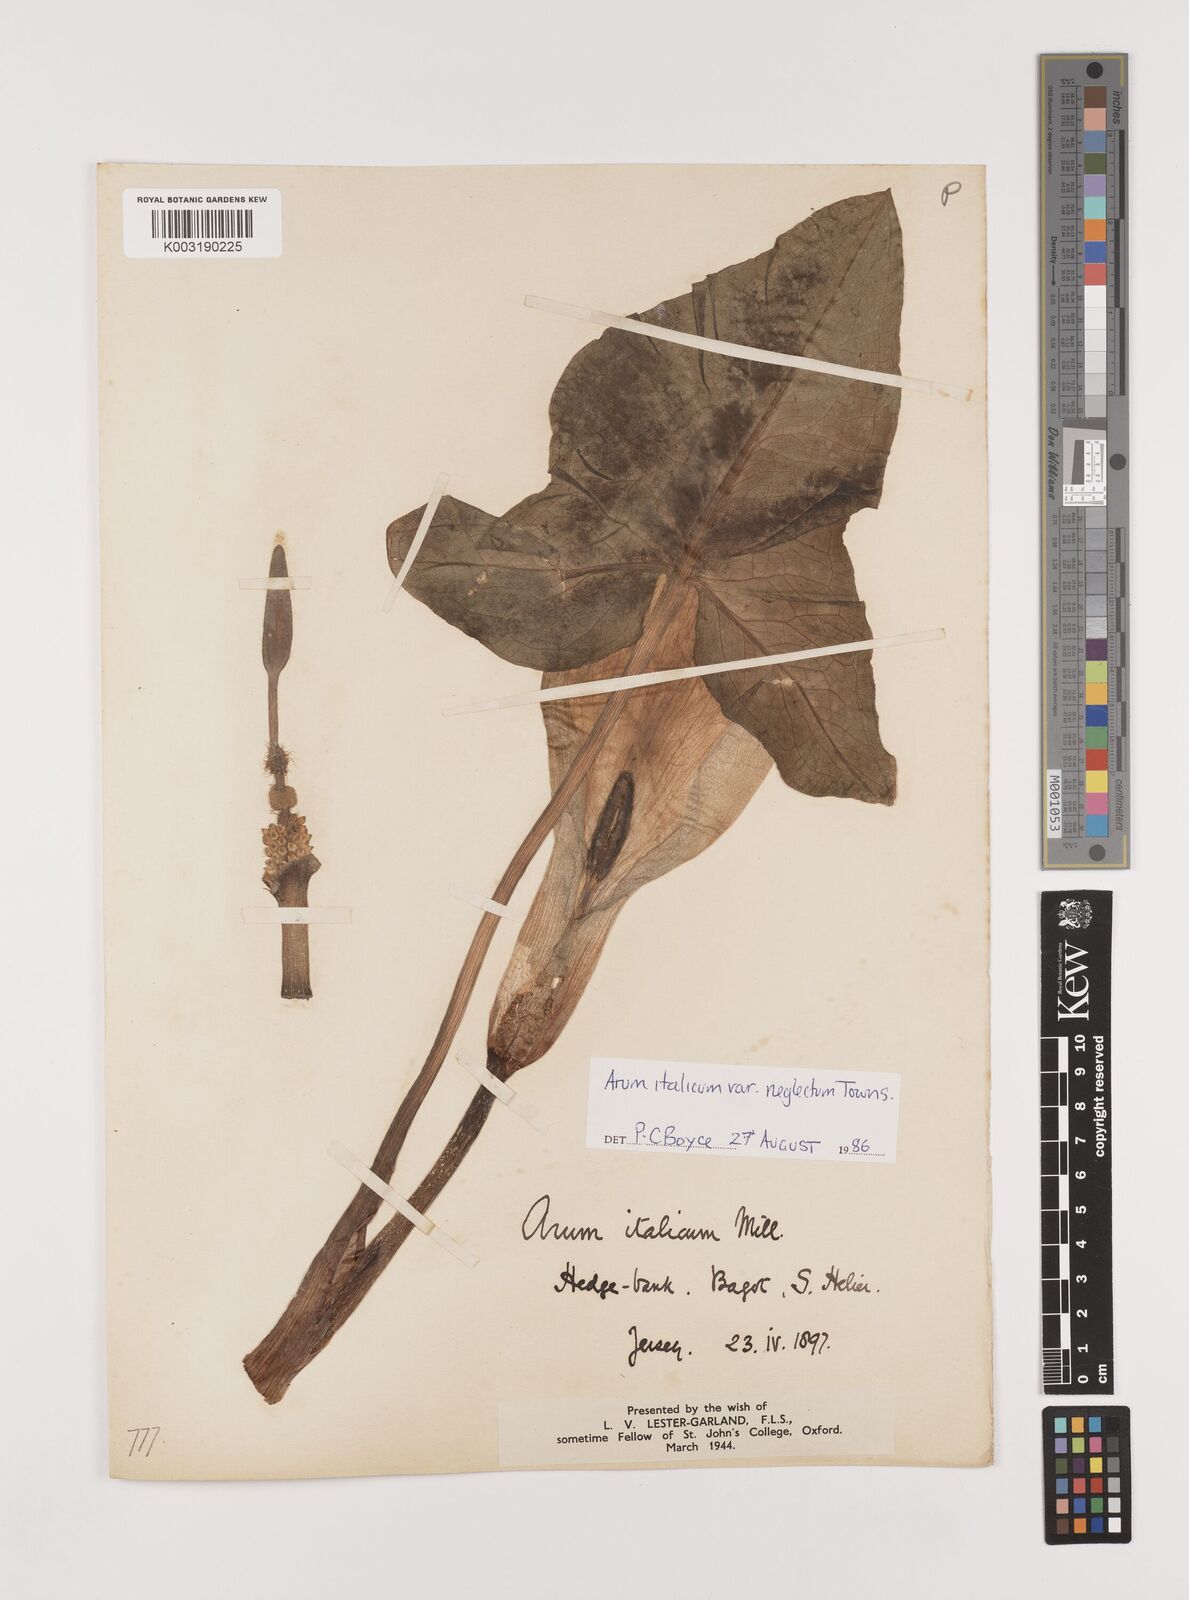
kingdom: Plantae
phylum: Tracheophyta
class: Liliopsida
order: Alismatales
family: Araceae
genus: Arum
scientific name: Arum italicum
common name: Italian lords-and-ladies
